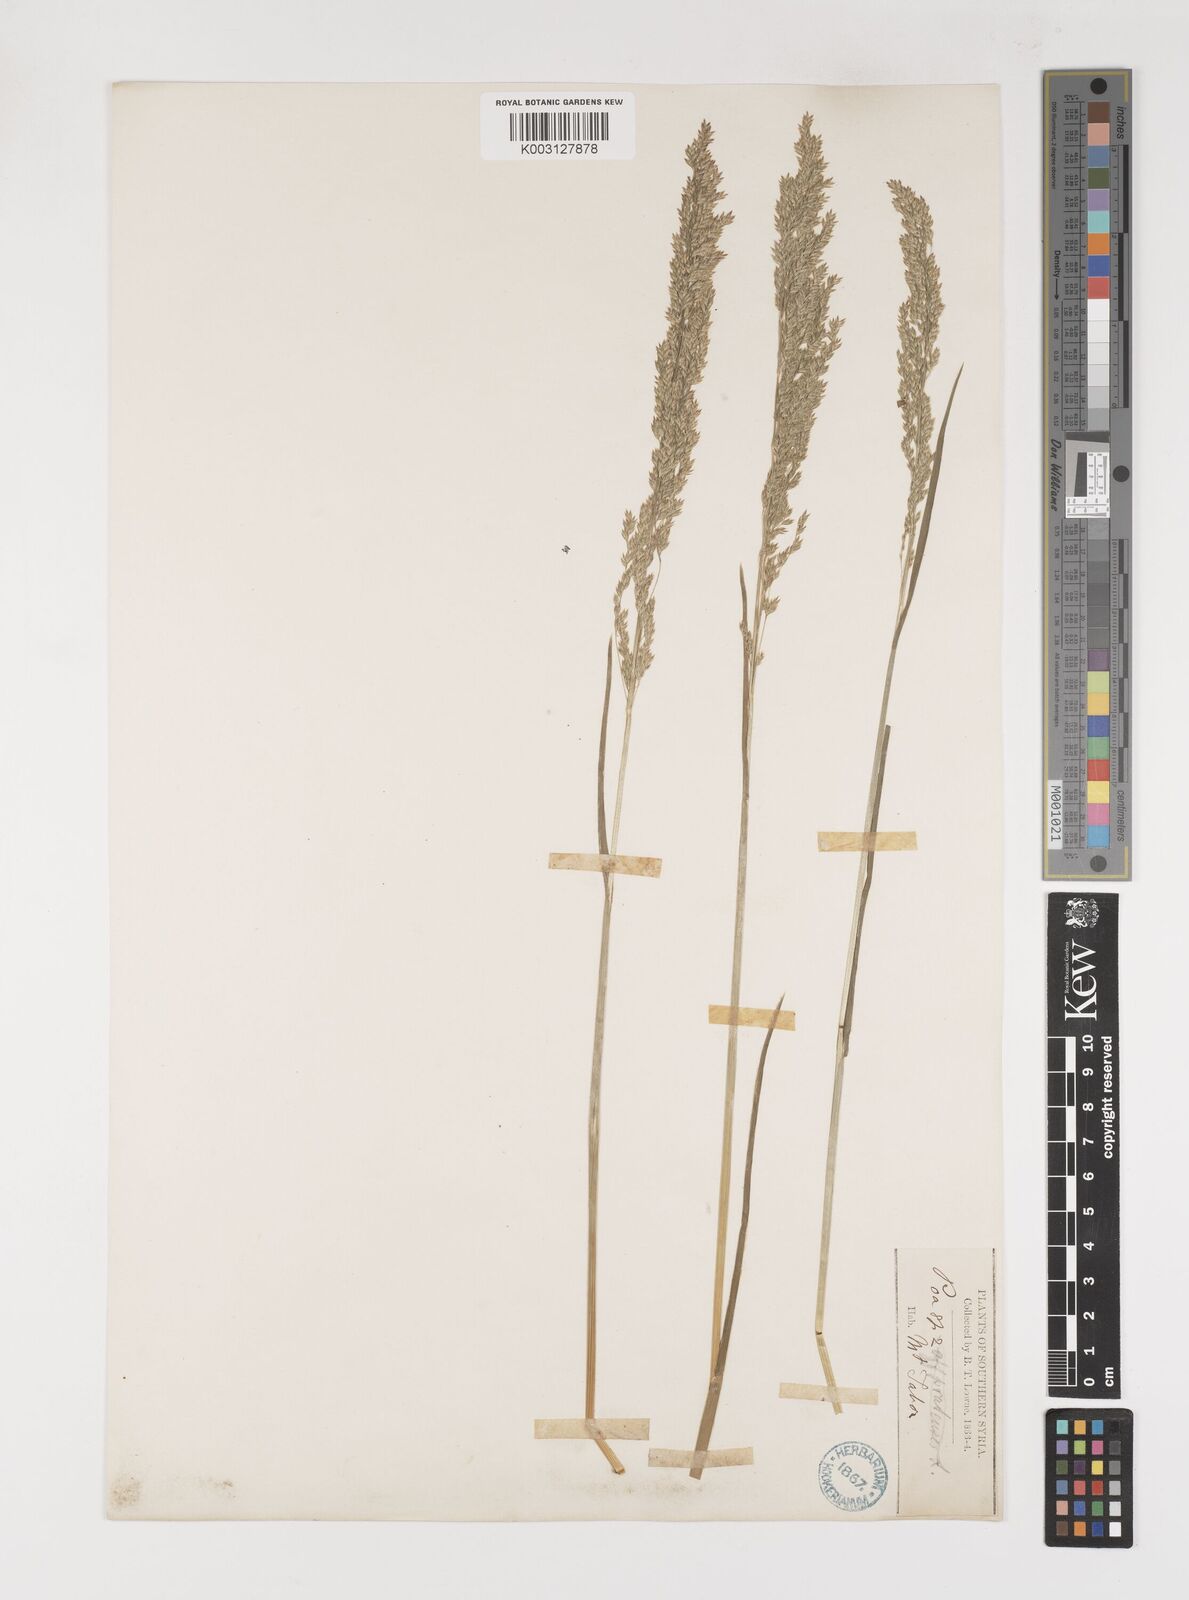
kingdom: Plantae
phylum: Tracheophyta
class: Liliopsida
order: Poales
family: Poaceae
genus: Poa
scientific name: Poa trivialis
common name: Rough bluegrass
